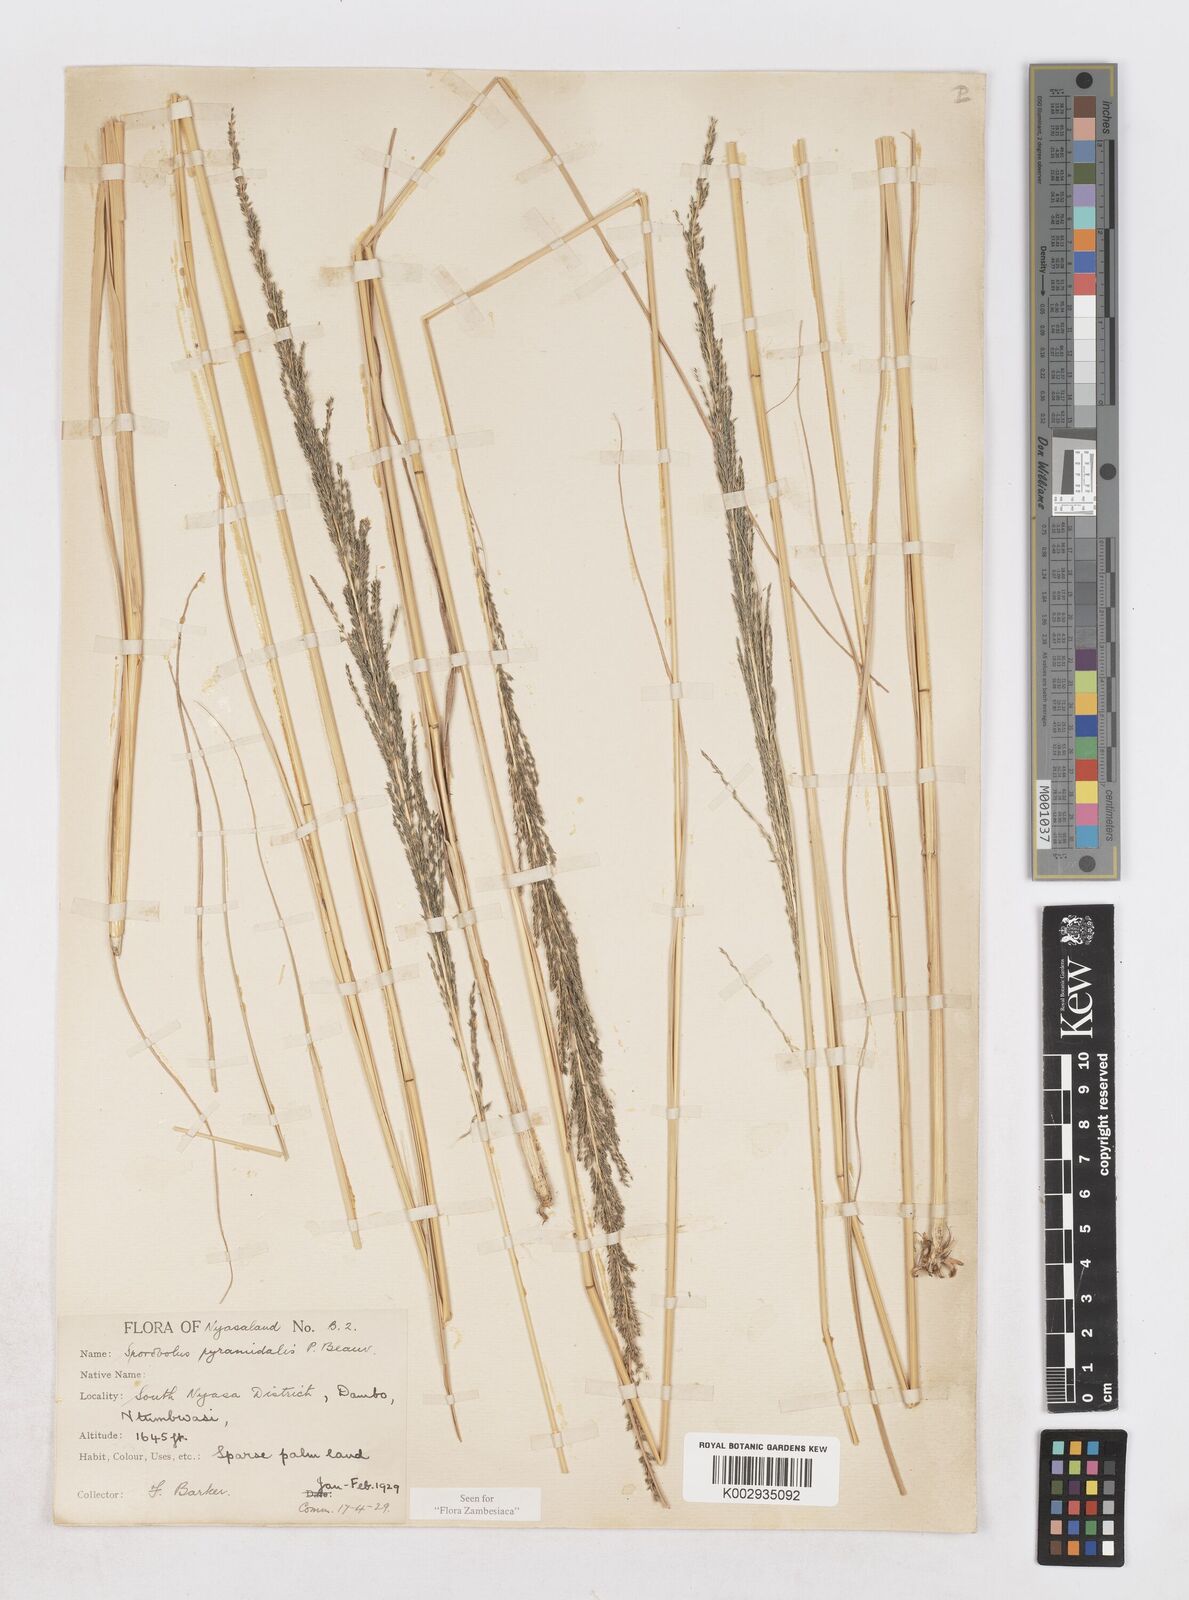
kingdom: Plantae
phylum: Tracheophyta
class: Liliopsida
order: Poales
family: Poaceae
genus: Sporobolus
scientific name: Sporobolus pyramidalis
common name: West indian dropseed
